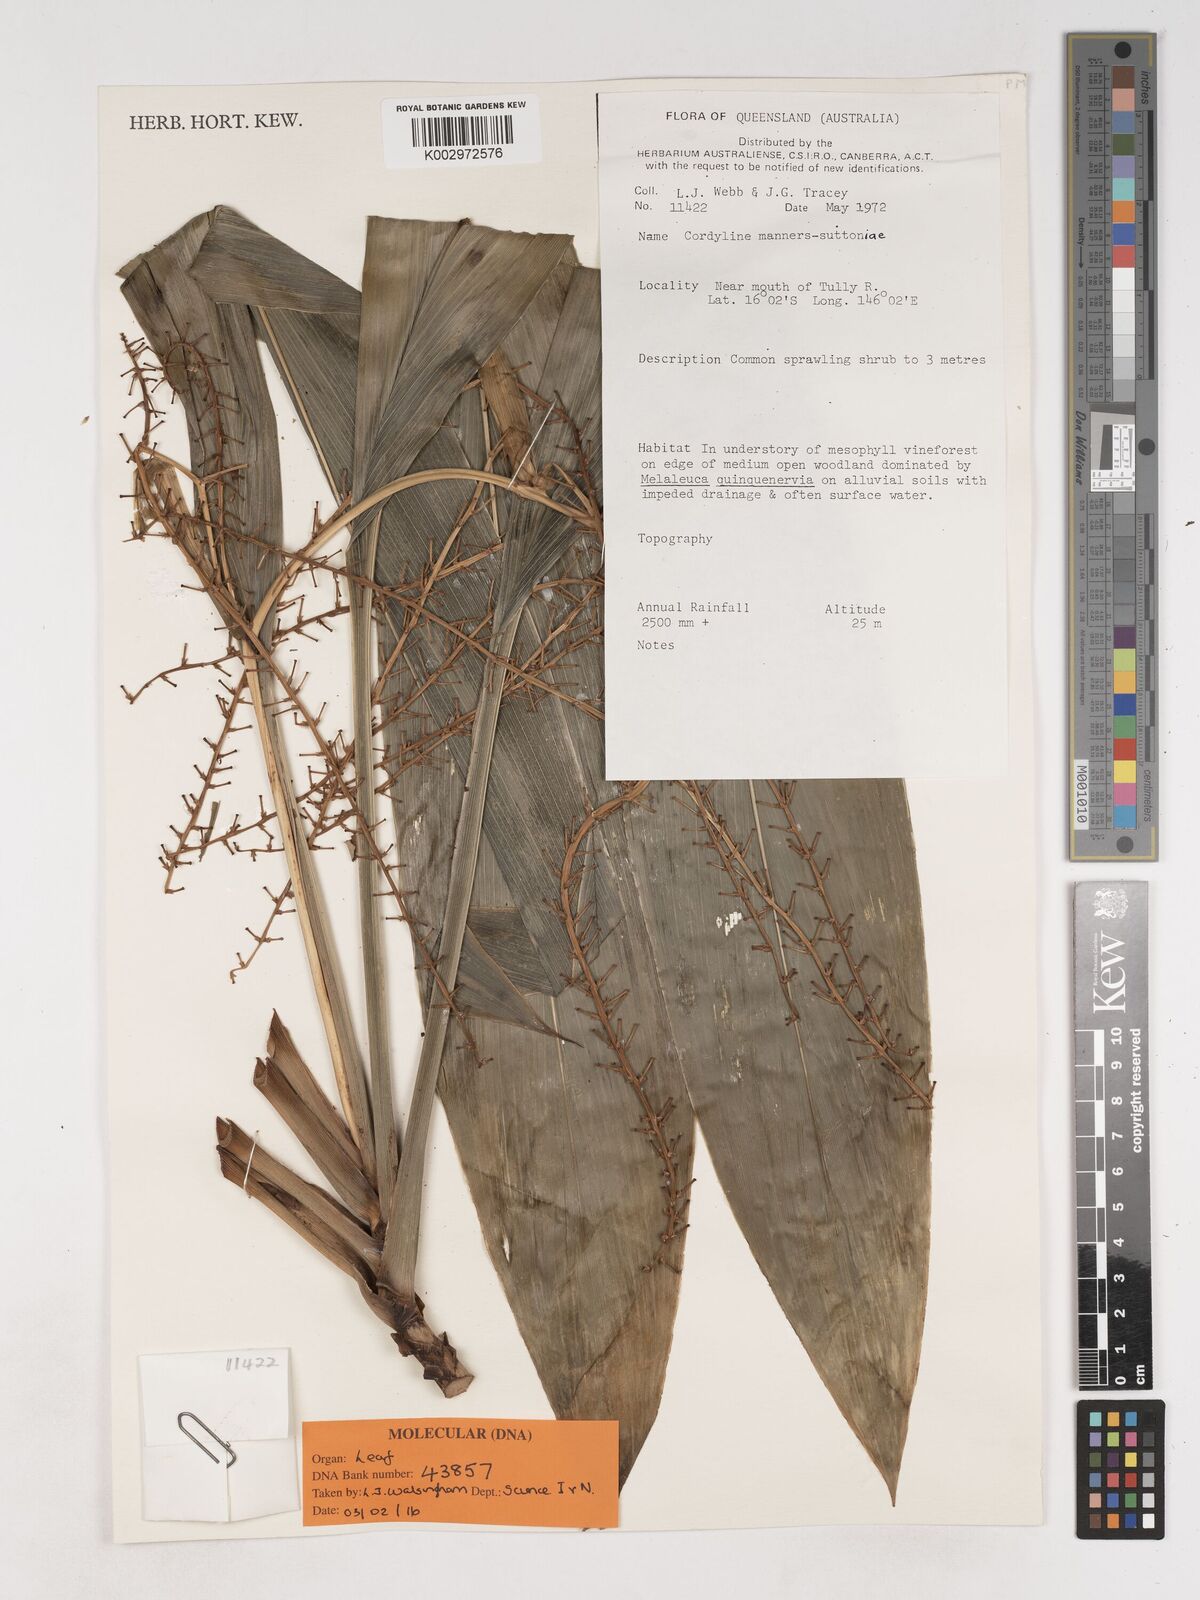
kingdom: Plantae
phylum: Tracheophyta
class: Liliopsida
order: Asparagales
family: Asparagaceae
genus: Cordyline
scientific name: Cordyline fruticosa
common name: Good-luck-plant
